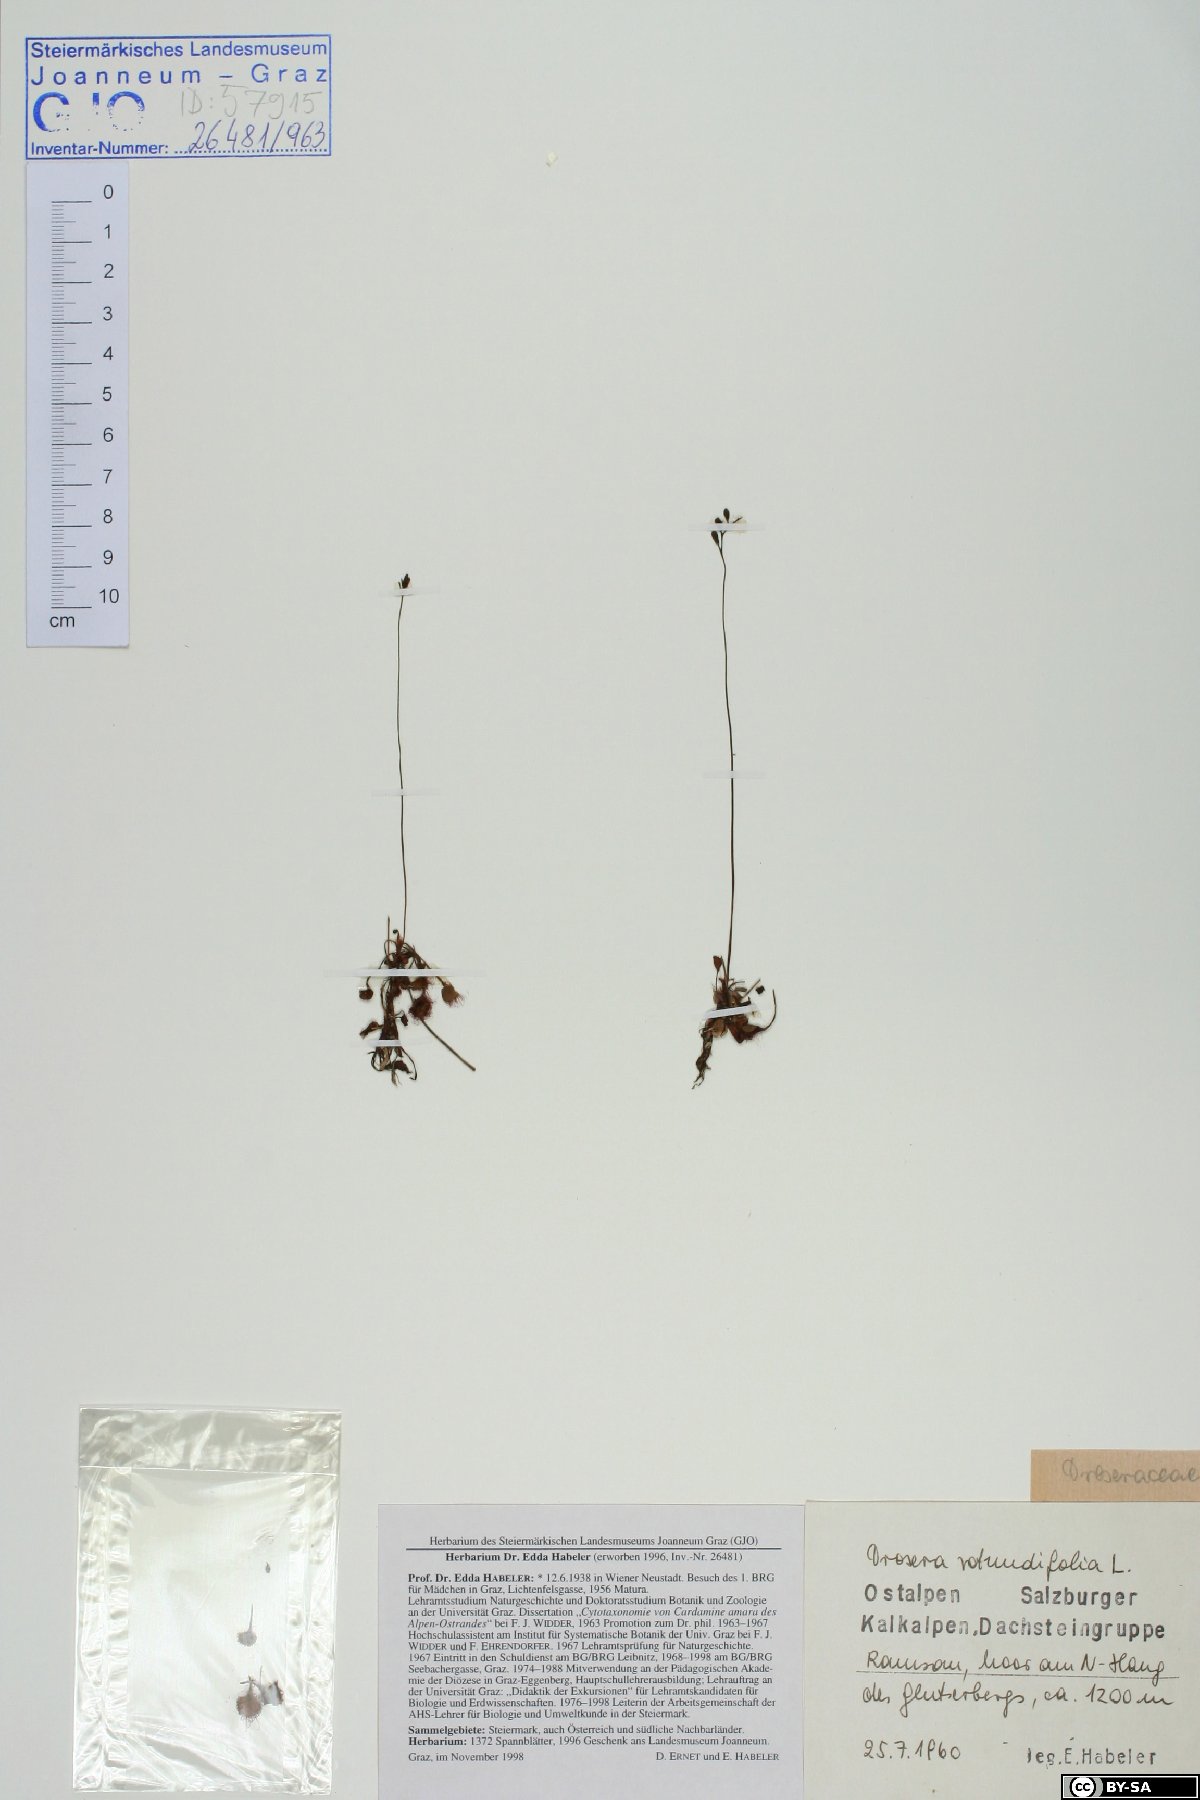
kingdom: Plantae
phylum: Tracheophyta
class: Magnoliopsida
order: Caryophyllales
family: Droseraceae
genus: Drosera
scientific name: Drosera rotundifolia
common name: Round-leaved sundew
